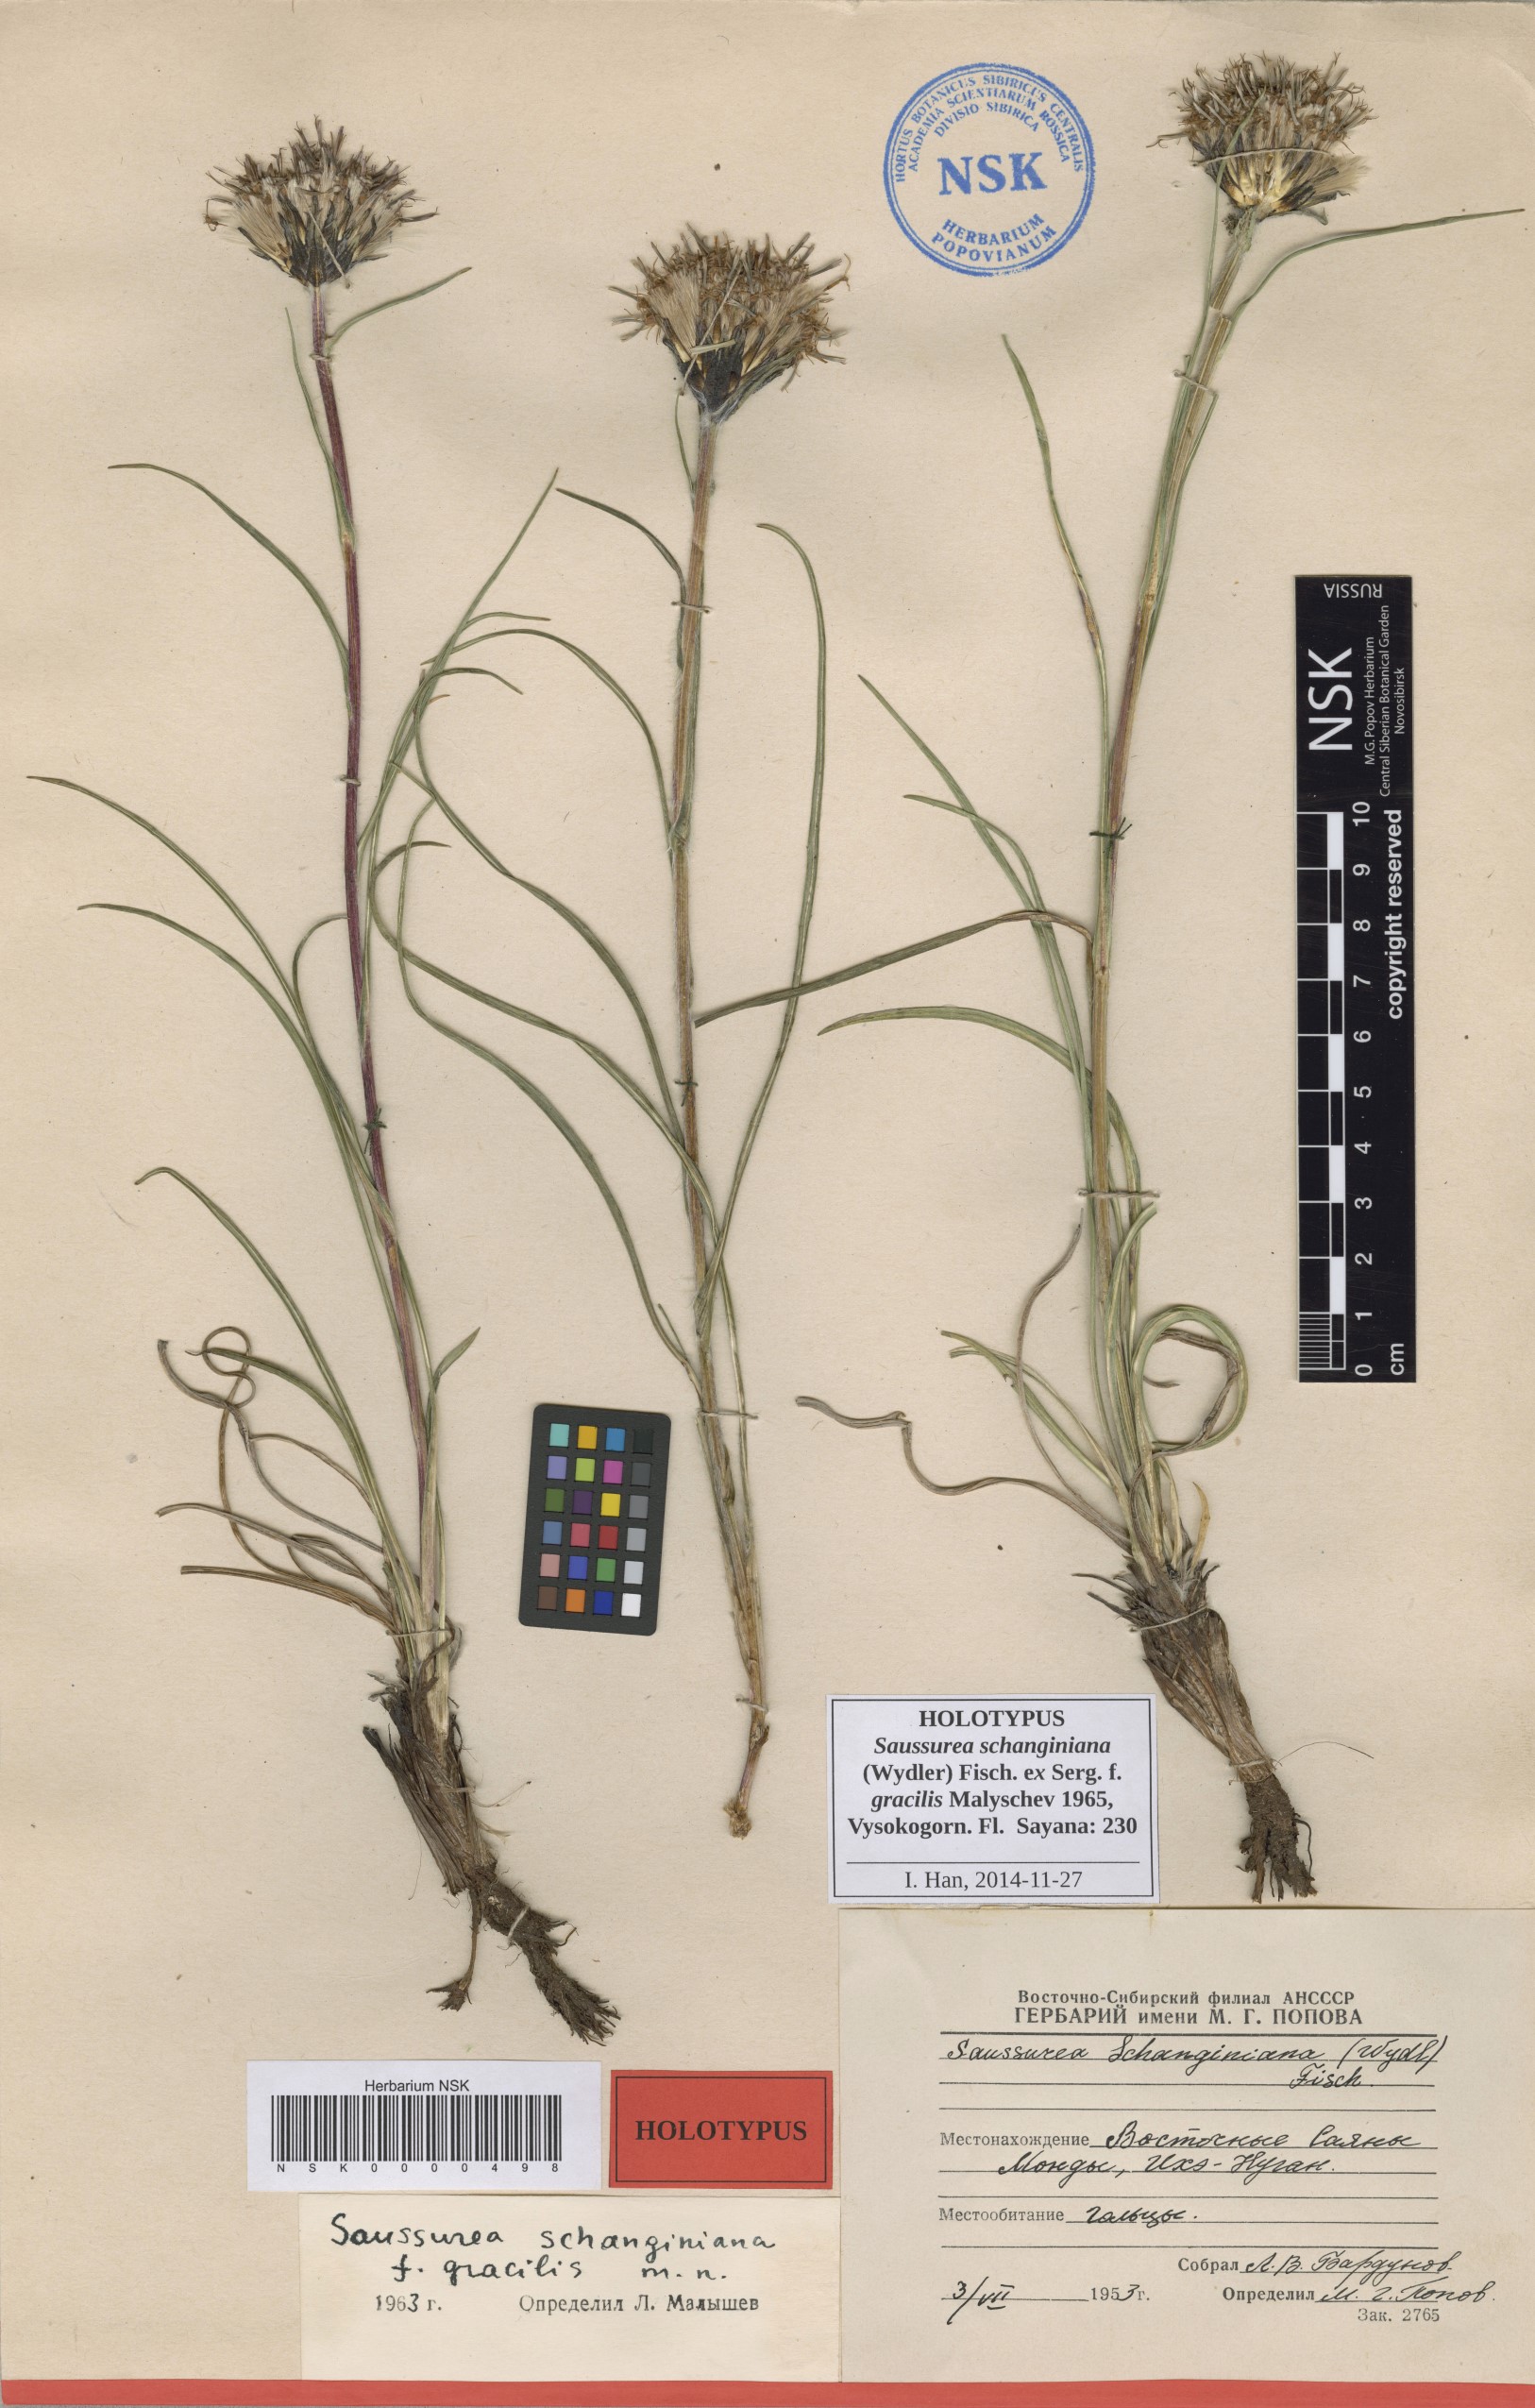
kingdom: Plantae
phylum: Tracheophyta
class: Magnoliopsida
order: Asterales
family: Asteraceae
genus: Saussurea
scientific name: Saussurea schanginiana
